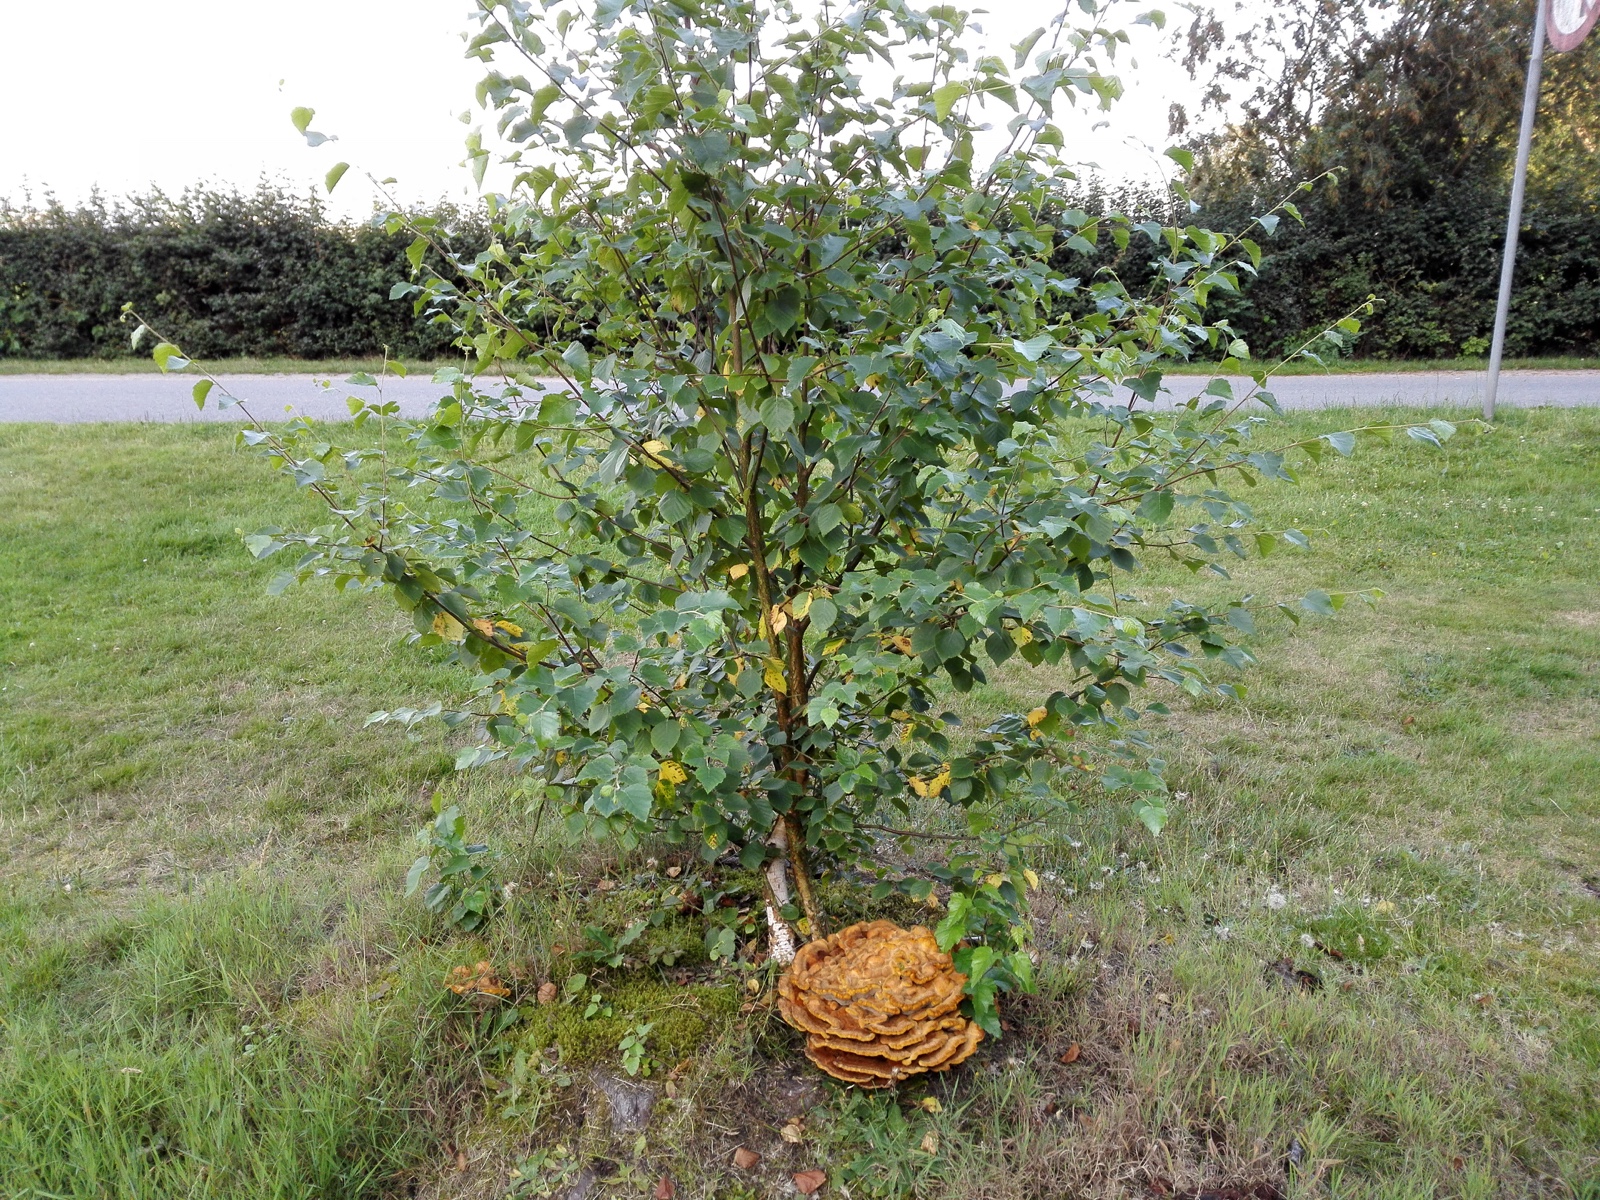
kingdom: Fungi
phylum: Basidiomycota
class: Agaricomycetes
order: Polyporales
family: Laetiporaceae
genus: Phaeolus
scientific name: Phaeolus schweinitzii
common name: brunporesvamp
